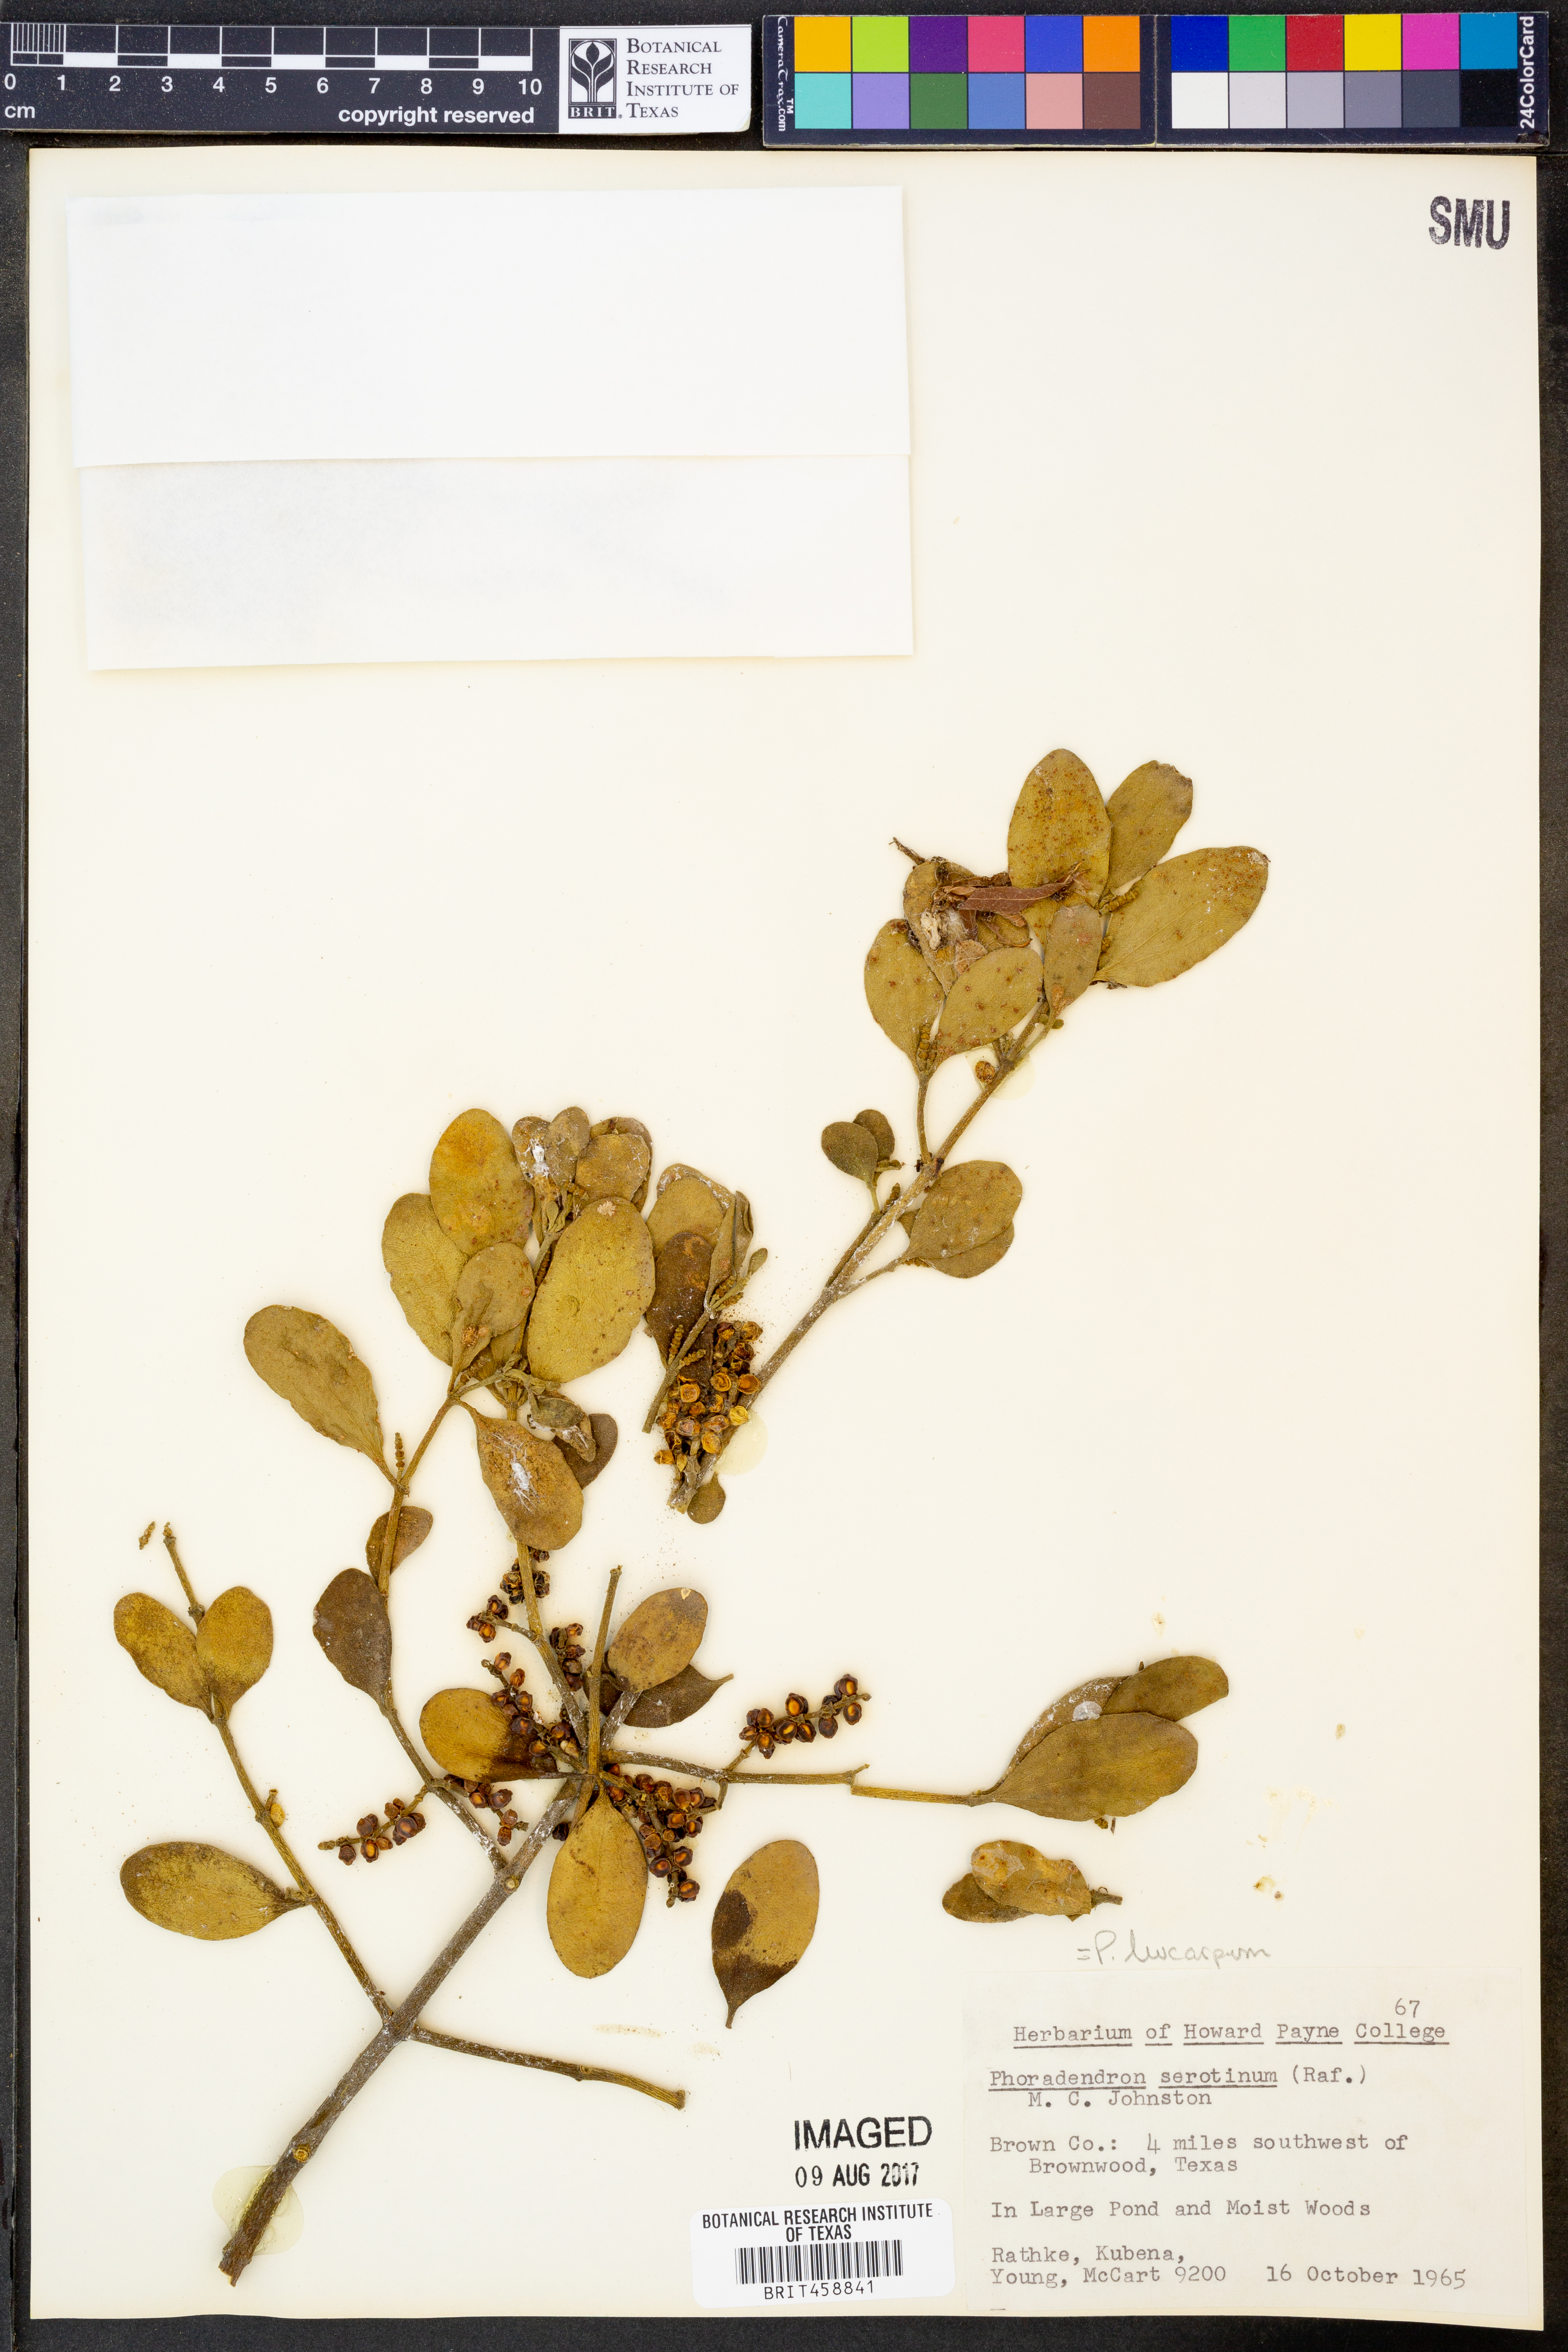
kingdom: Plantae
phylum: Tracheophyta
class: Magnoliopsida
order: Santalales
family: Viscaceae
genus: Phoradendron
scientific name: Phoradendron leucarpum
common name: Pacific mistletoe
